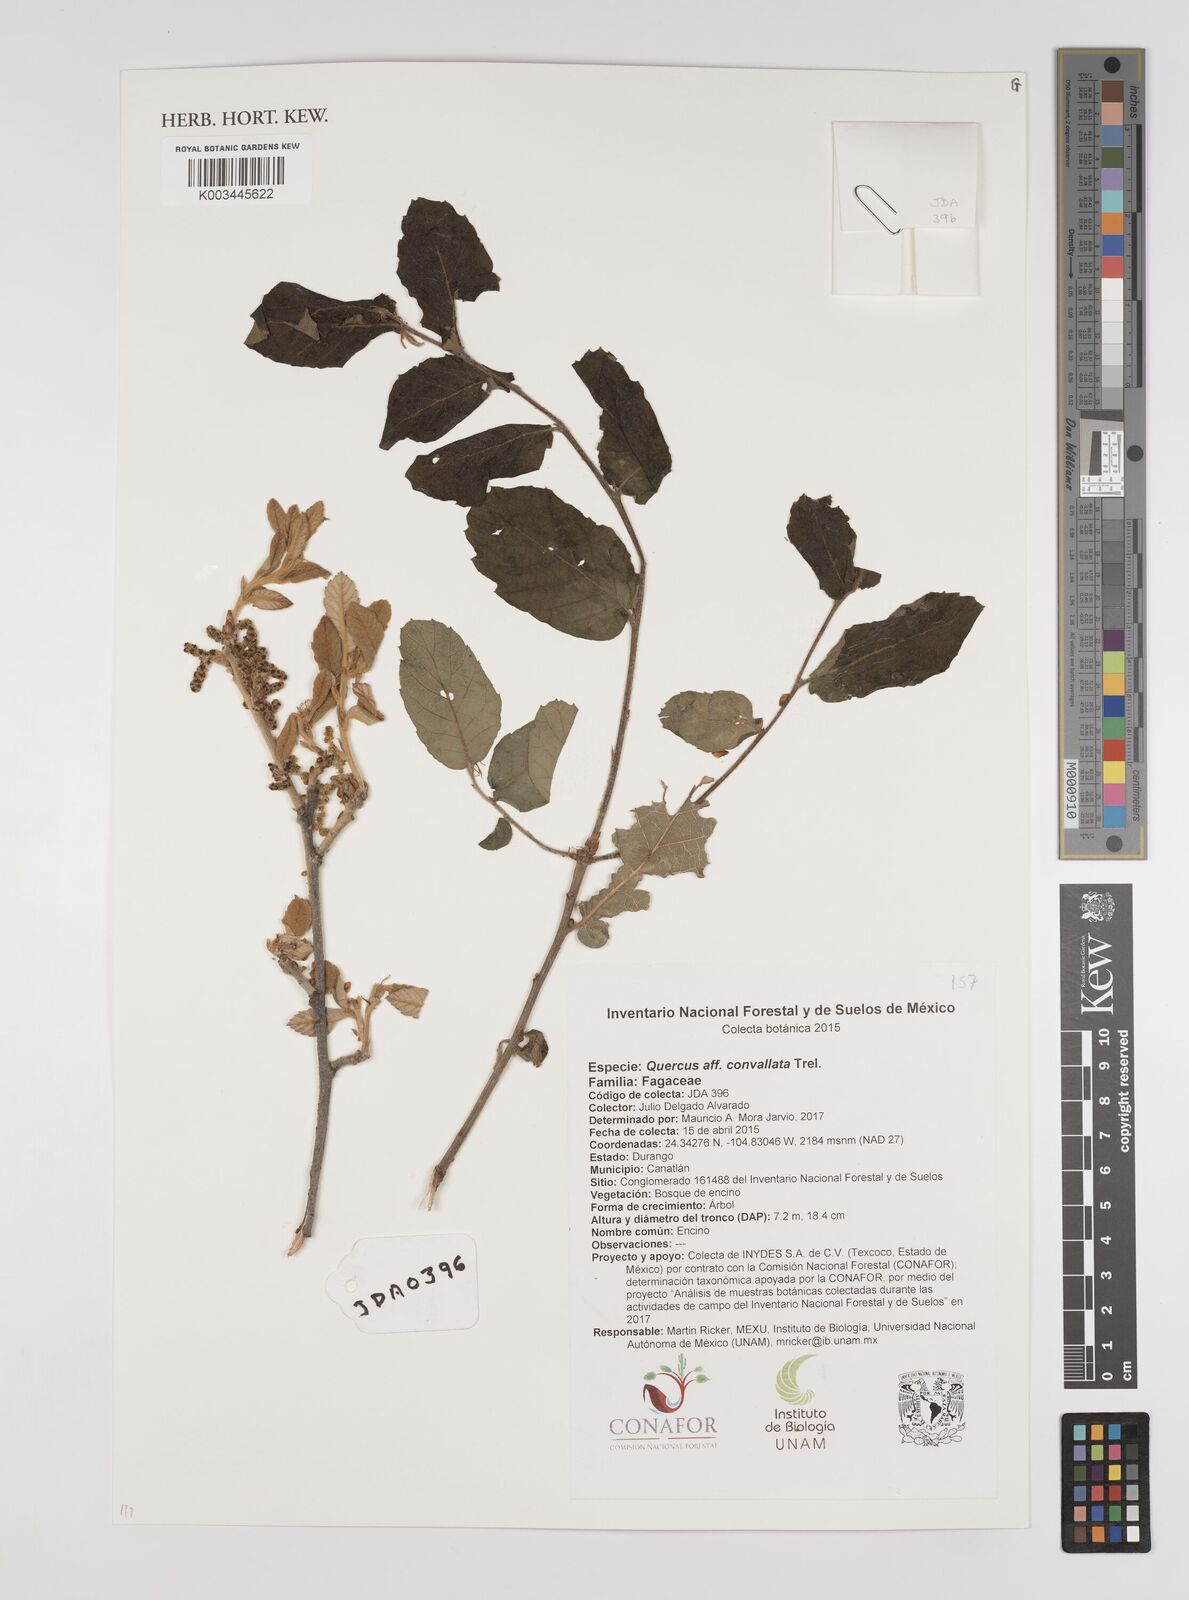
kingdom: Plantae
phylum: Tracheophyta
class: Magnoliopsida
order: Fagales
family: Fagaceae
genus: Quercus
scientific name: Quercus convallata
